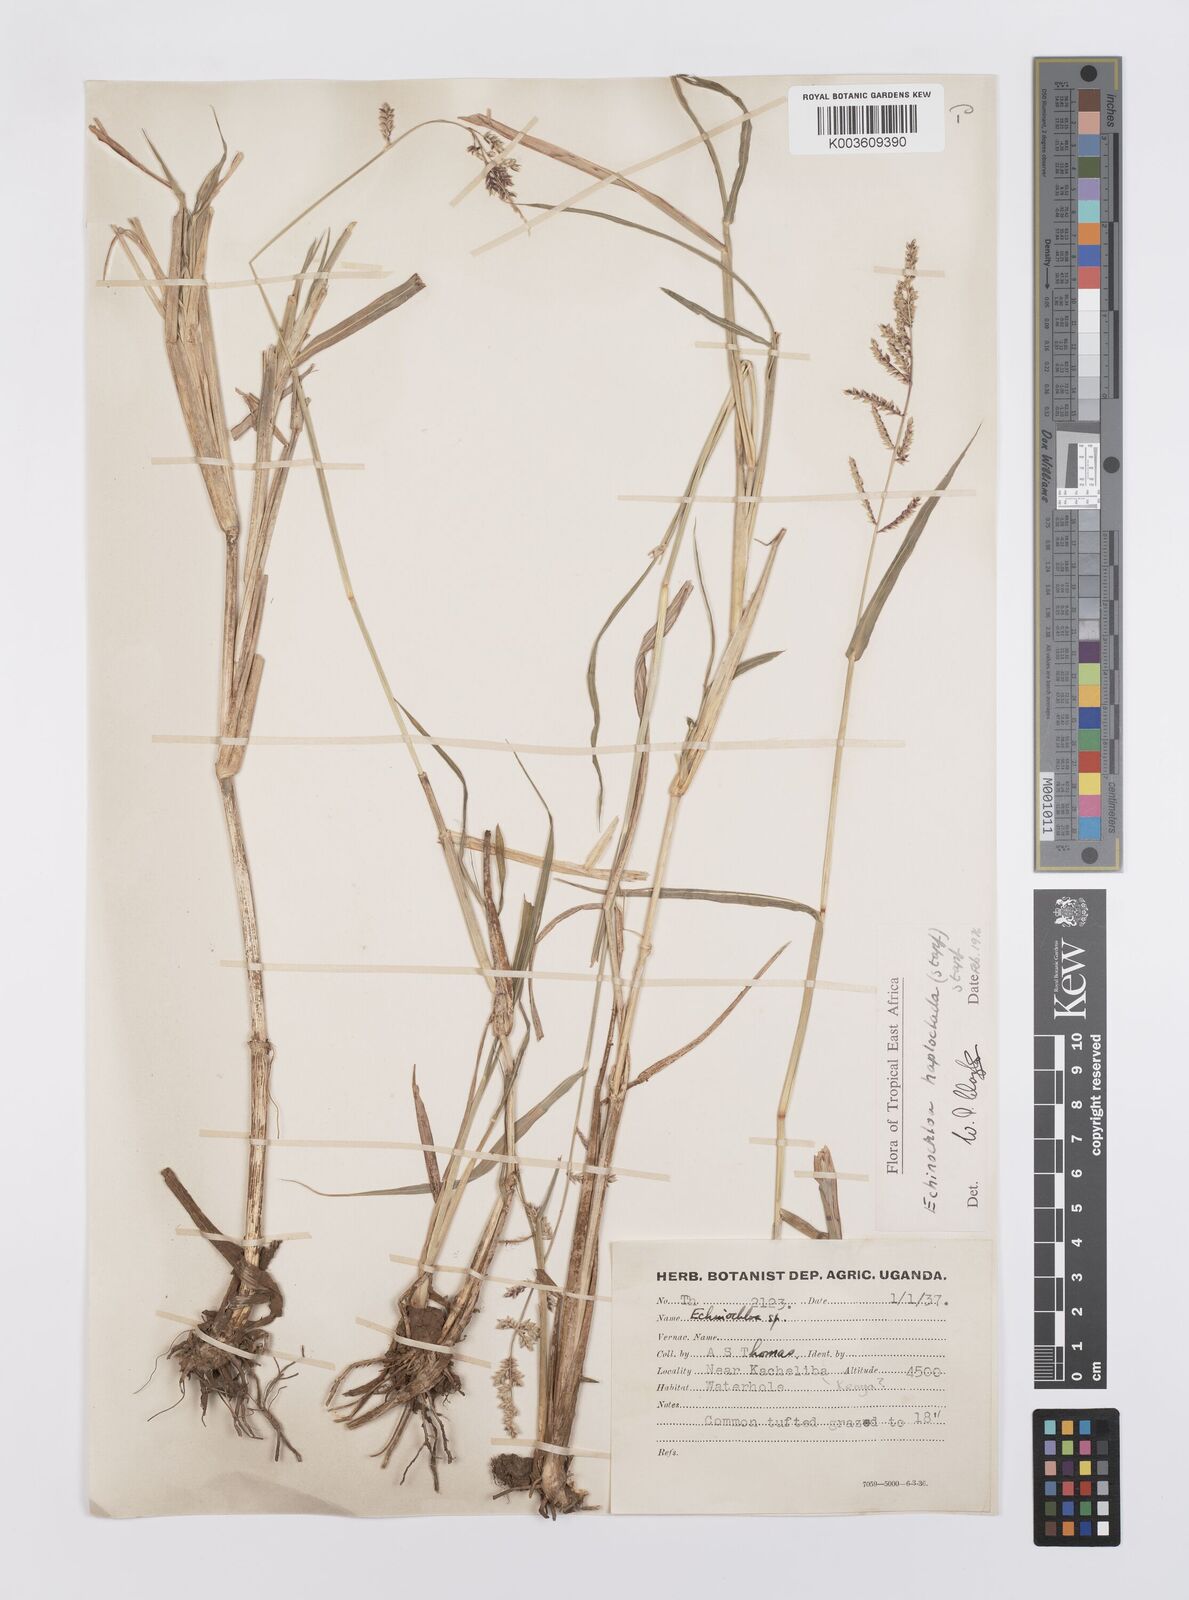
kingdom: Plantae
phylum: Tracheophyta
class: Liliopsida
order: Poales
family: Poaceae
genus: Echinochloa
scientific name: Echinochloa haploclada
